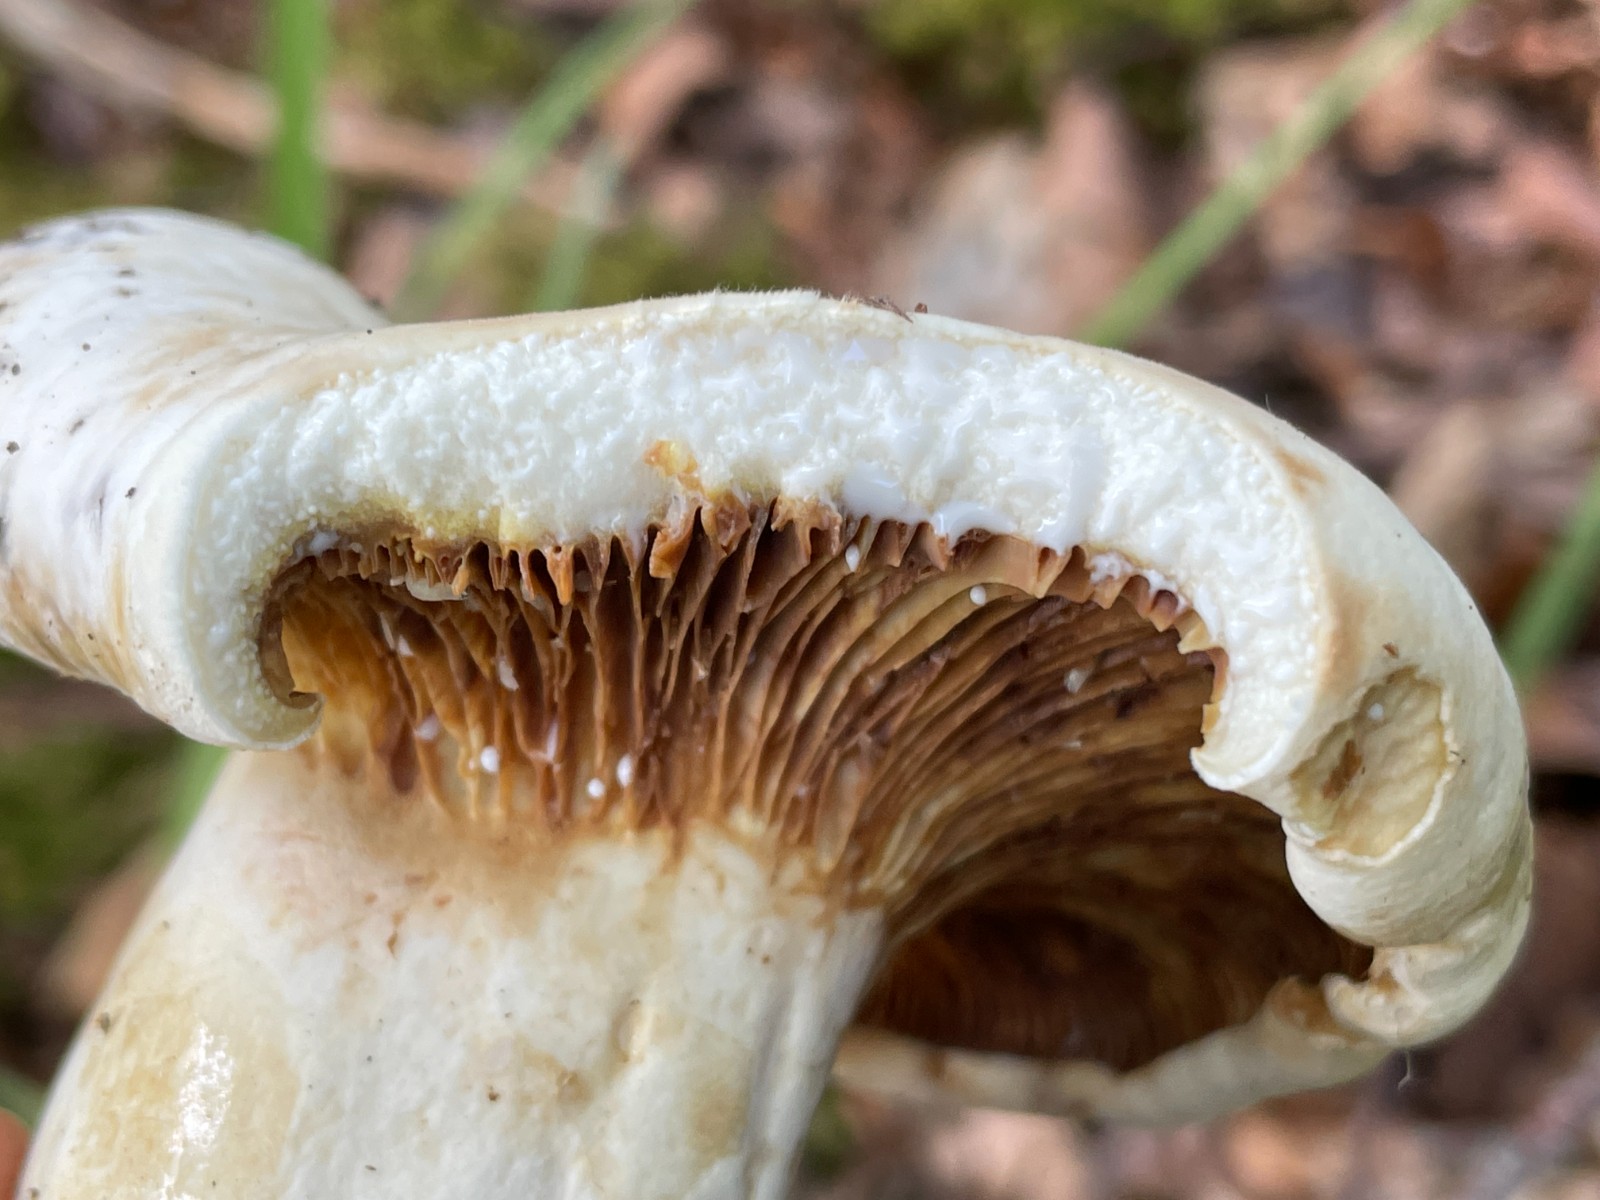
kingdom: Fungi
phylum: Basidiomycota
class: Agaricomycetes
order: Russulales
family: Russulaceae
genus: Lactifluus
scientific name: Lactifluus vellereus
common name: hvidfiltet mælkehat
